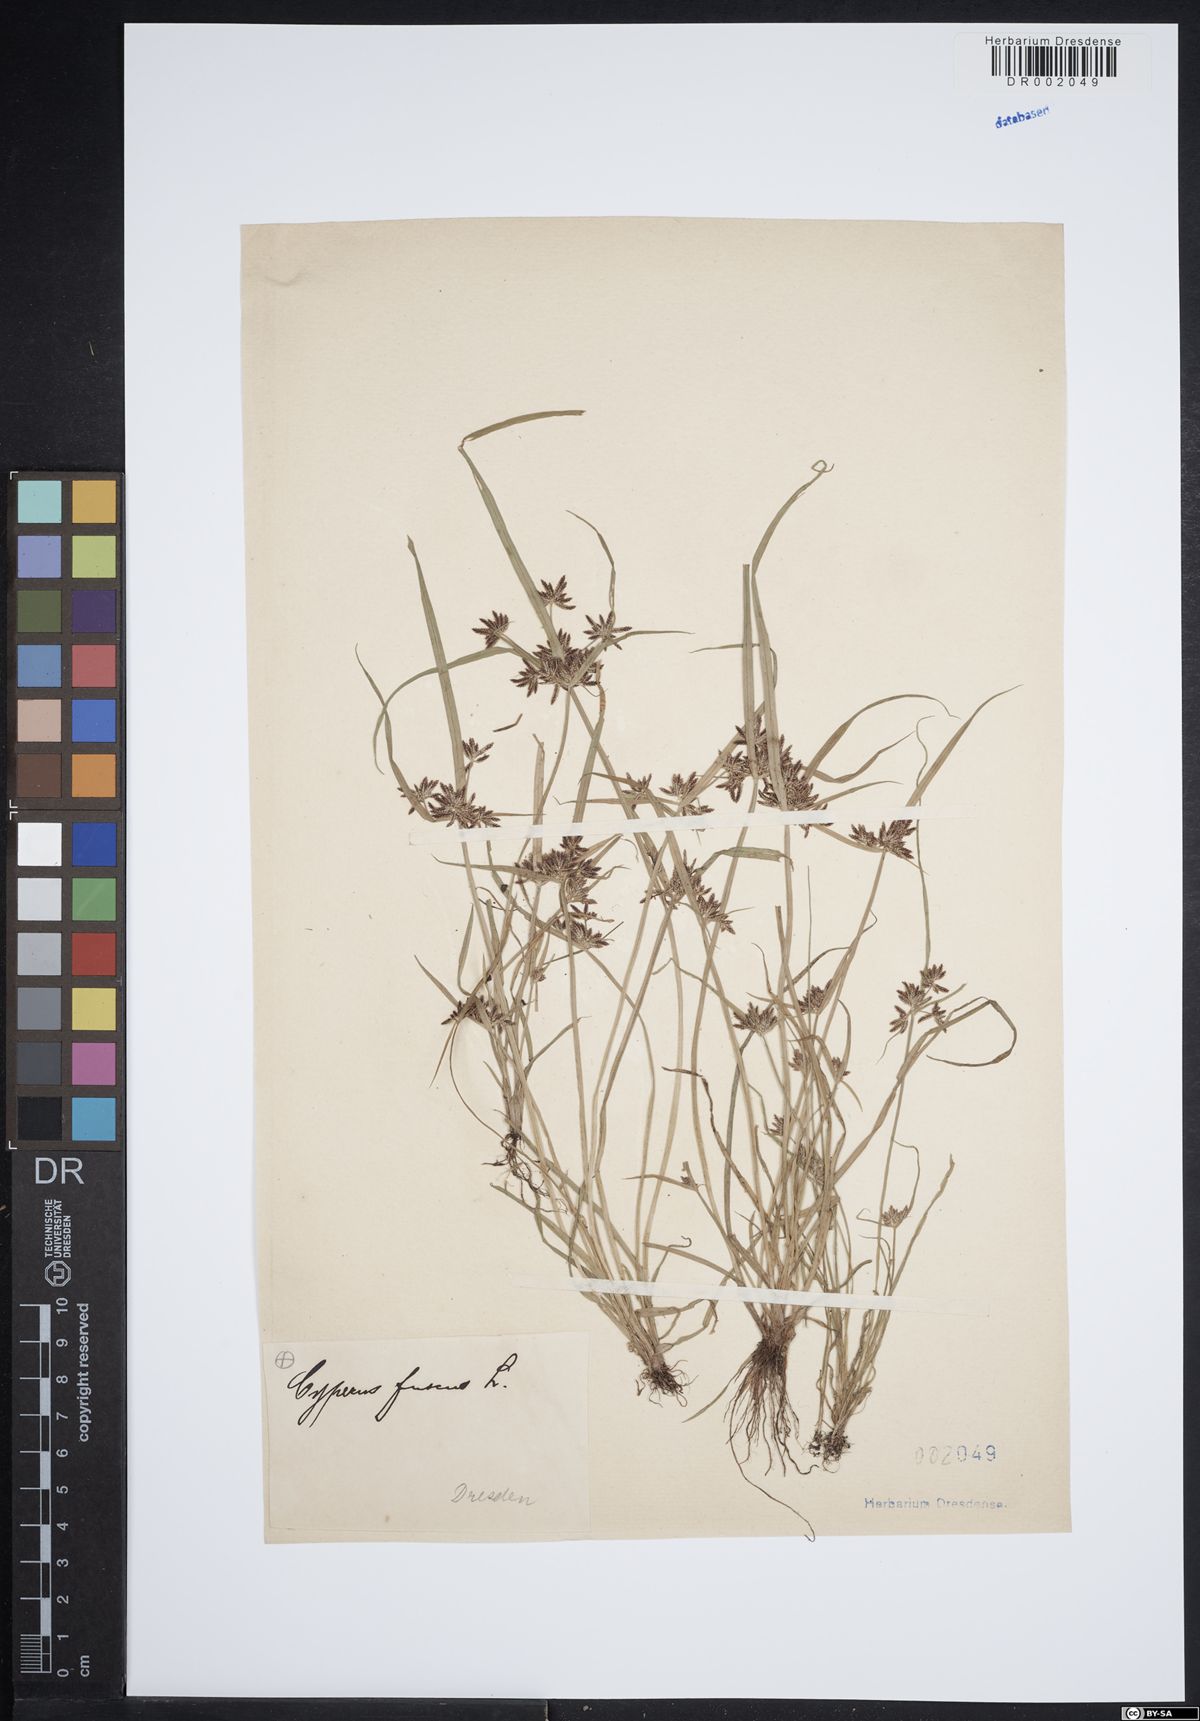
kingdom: Plantae
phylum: Tracheophyta
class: Liliopsida
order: Poales
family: Cyperaceae
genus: Cyperus
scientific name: Cyperus fuscus
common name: Brown galingale
